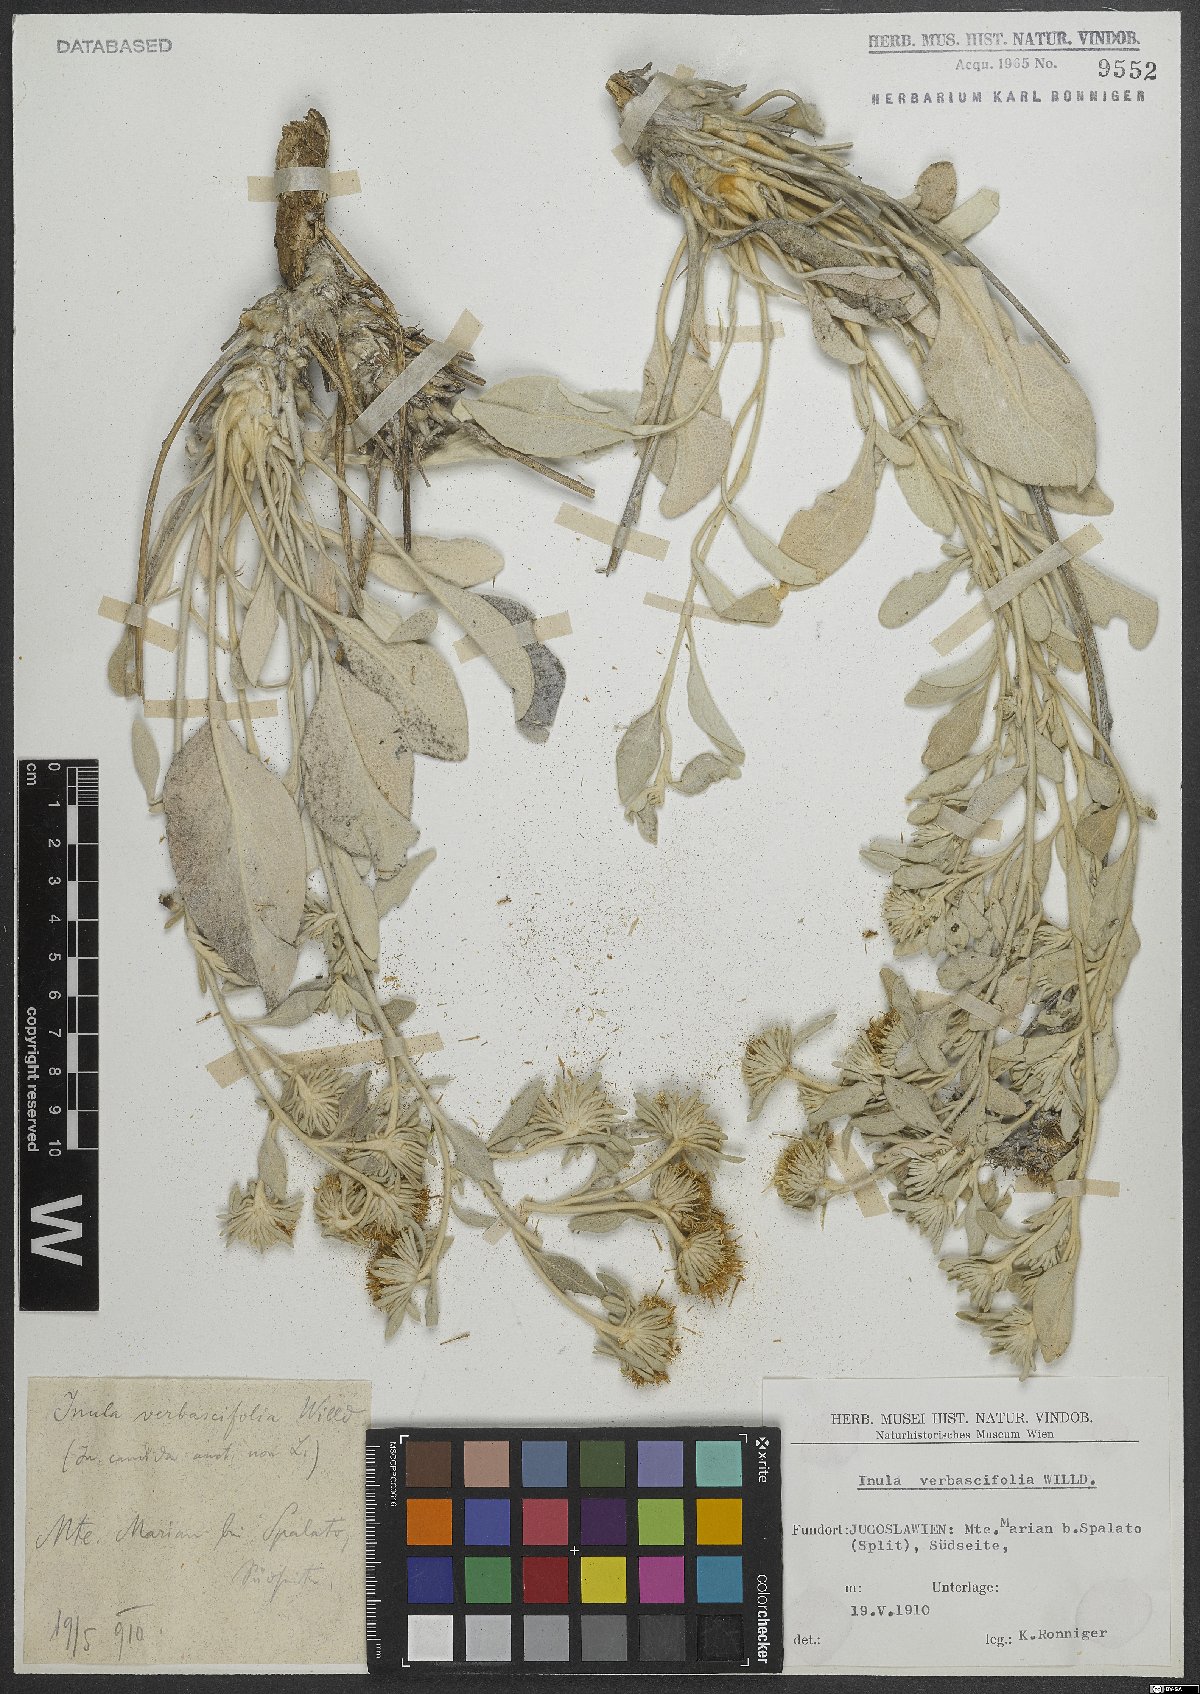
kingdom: Plantae
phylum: Tracheophyta
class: Magnoliopsida
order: Asterales
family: Asteraceae
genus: Pentanema
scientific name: Pentanema verbascifolium
